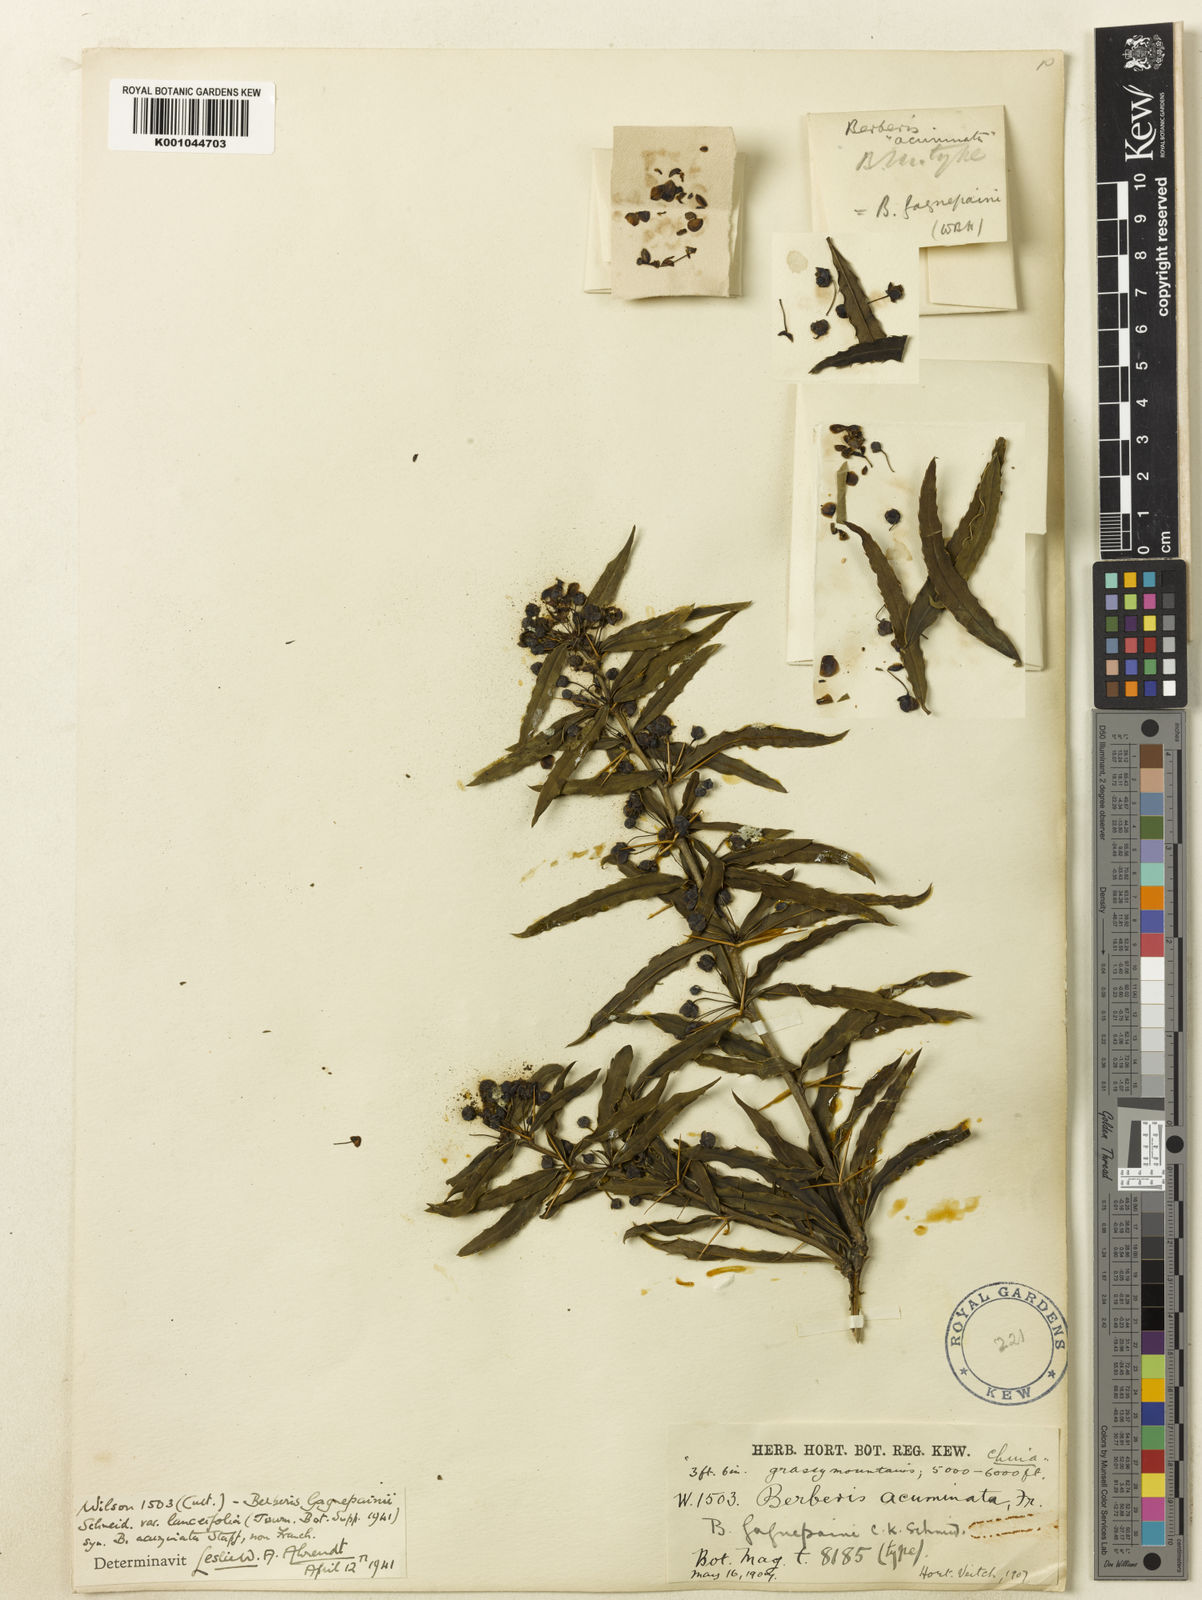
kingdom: Plantae
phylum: Tracheophyta
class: Magnoliopsida
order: Ranunculales
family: Berberidaceae
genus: Berberis
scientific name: Berberis gagnepainii
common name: Gagnepain's barberry
